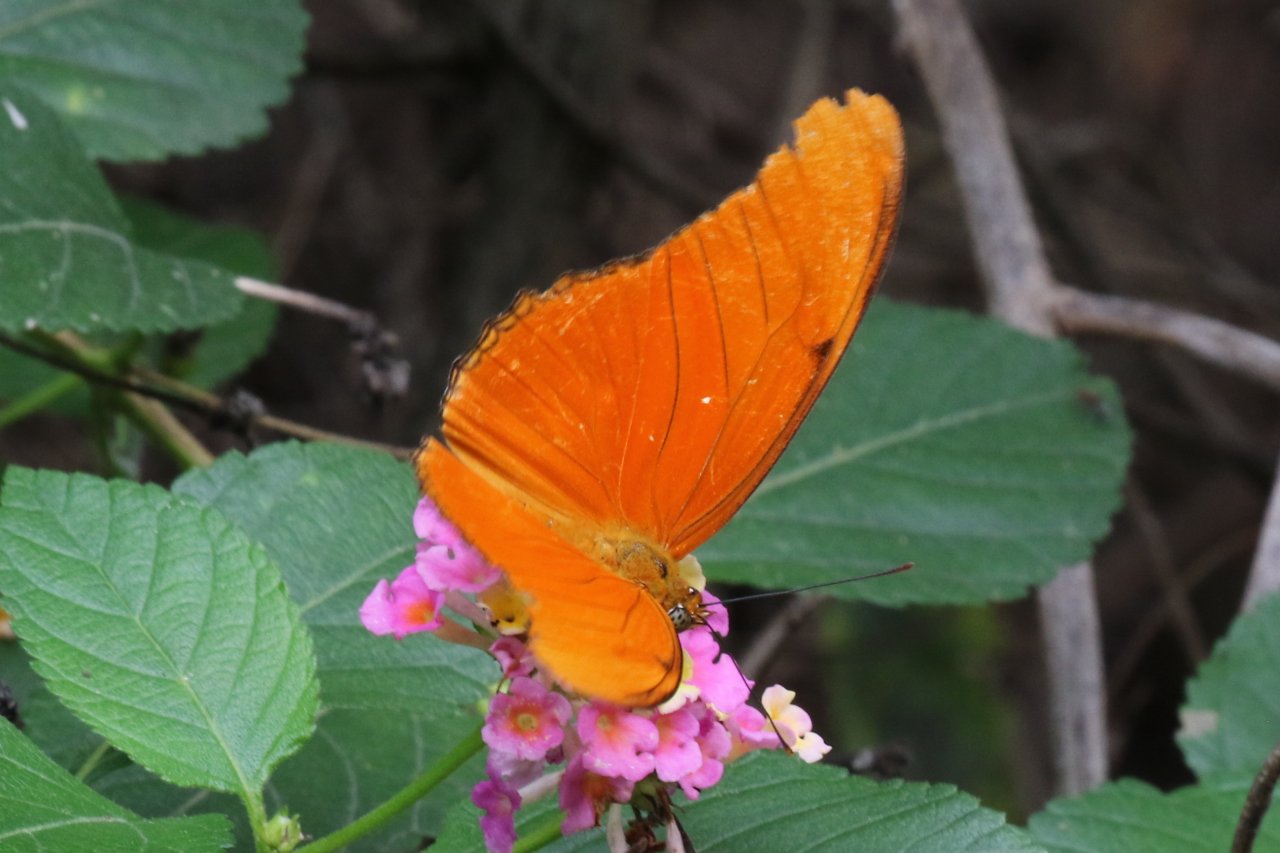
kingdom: Animalia
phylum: Arthropoda
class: Insecta
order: Lepidoptera
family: Nymphalidae
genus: Dryas
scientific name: Dryas iulia
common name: Julia
